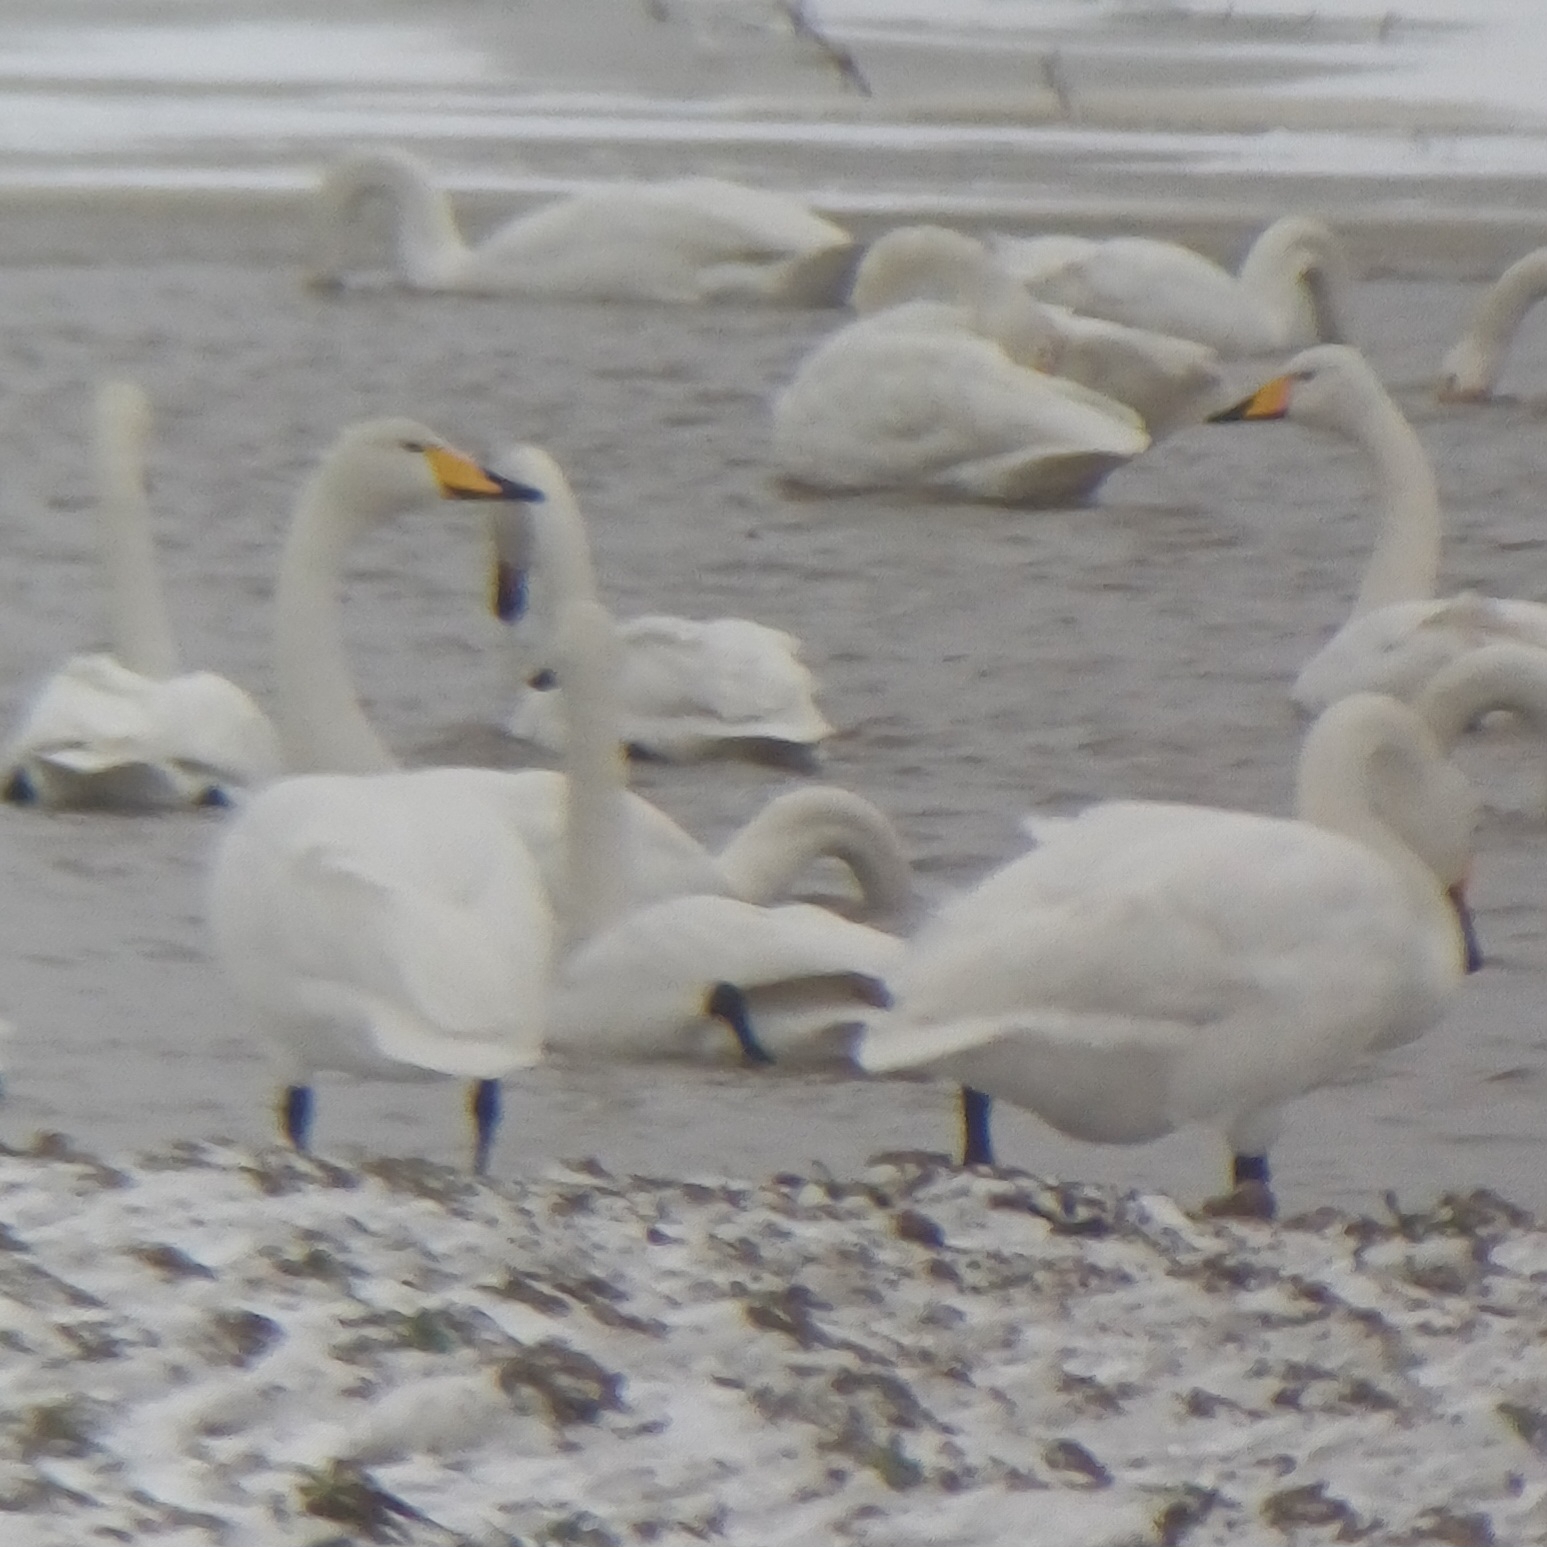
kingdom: Animalia
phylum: Chordata
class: Aves
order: Anseriformes
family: Anatidae
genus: Cygnus
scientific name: Cygnus cygnus
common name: Sangsvane
